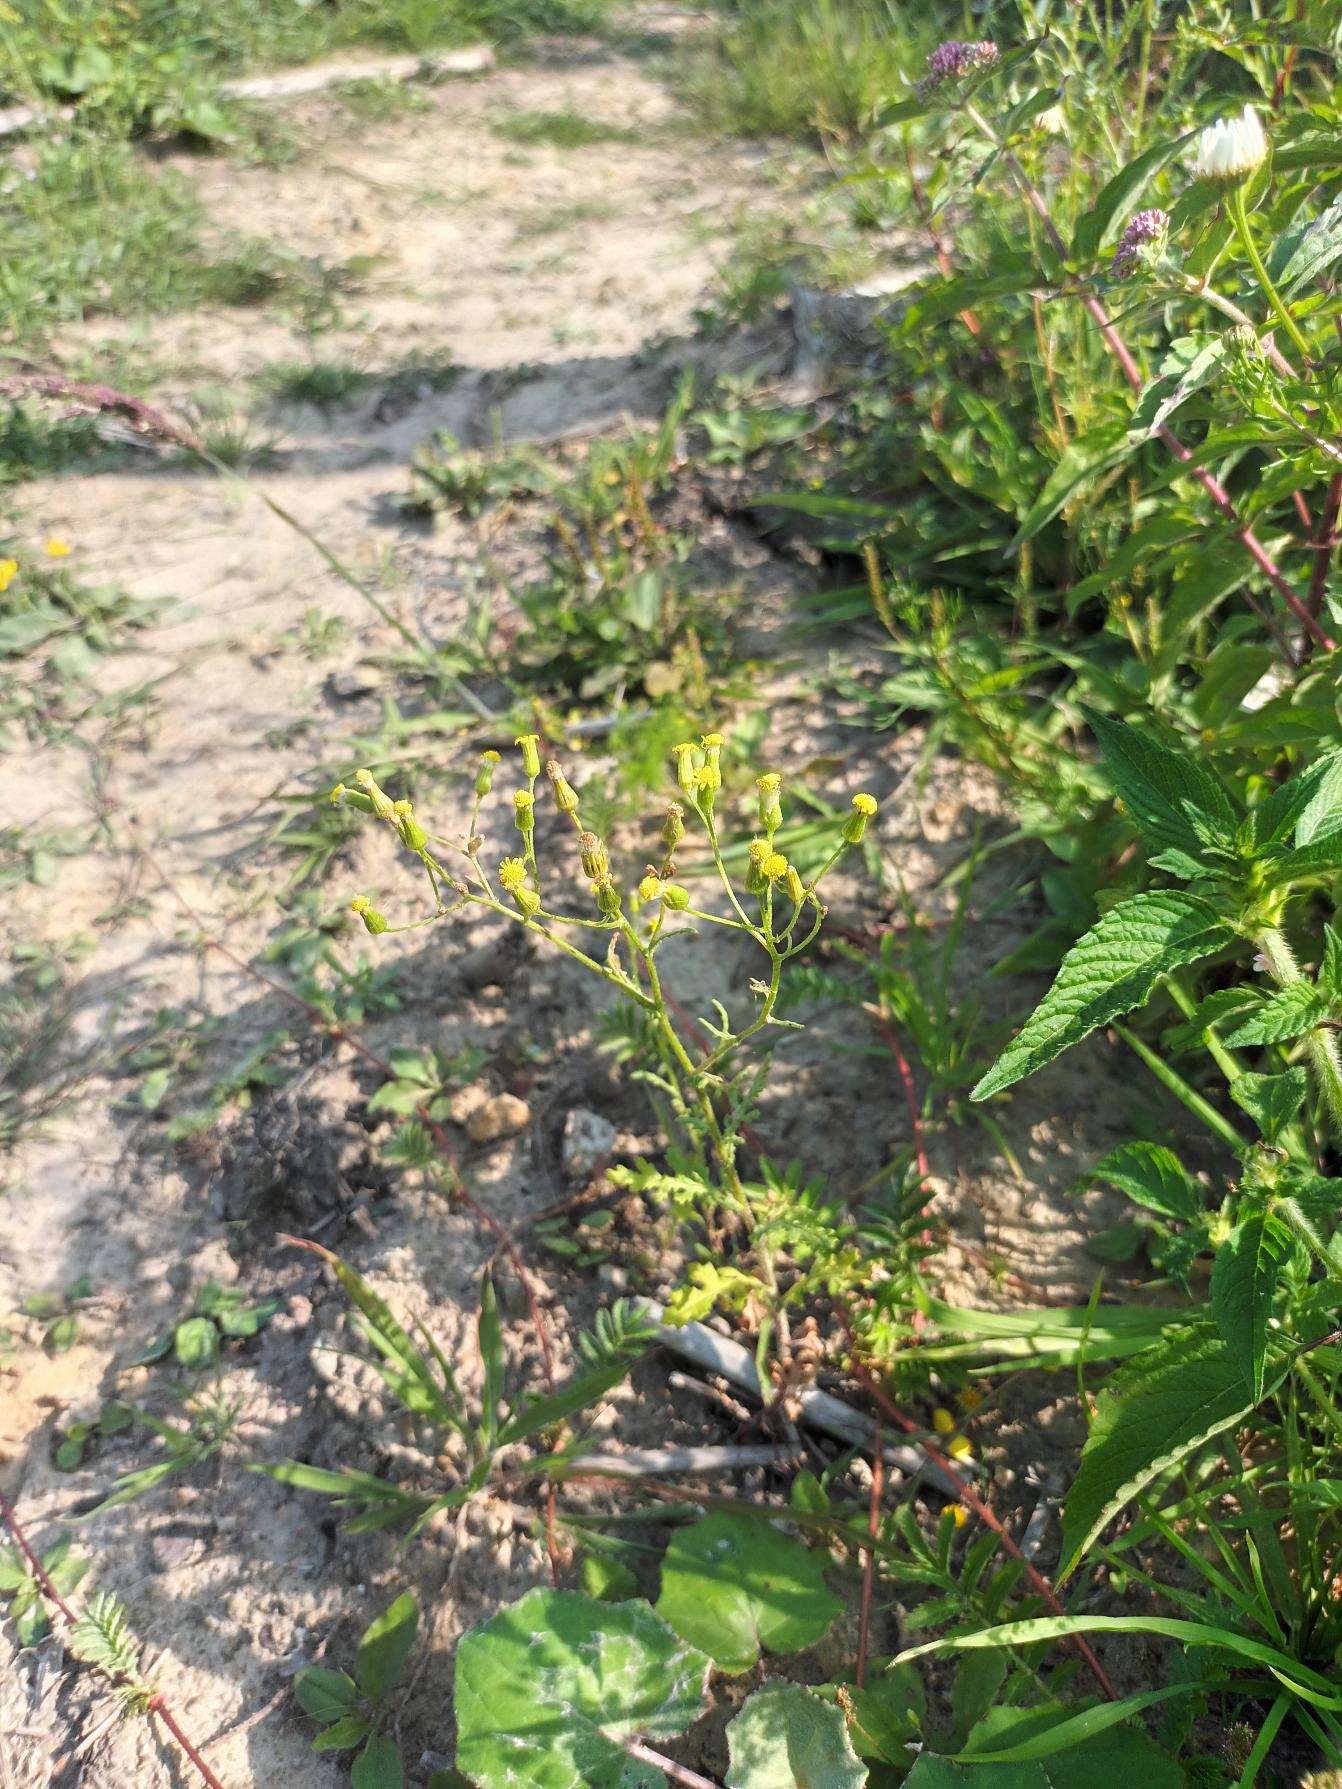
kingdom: Plantae
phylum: Tracheophyta
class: Magnoliopsida
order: Asterales
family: Asteraceae
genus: Senecio
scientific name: Senecio sylvaticus
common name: Skov-brandbæger
